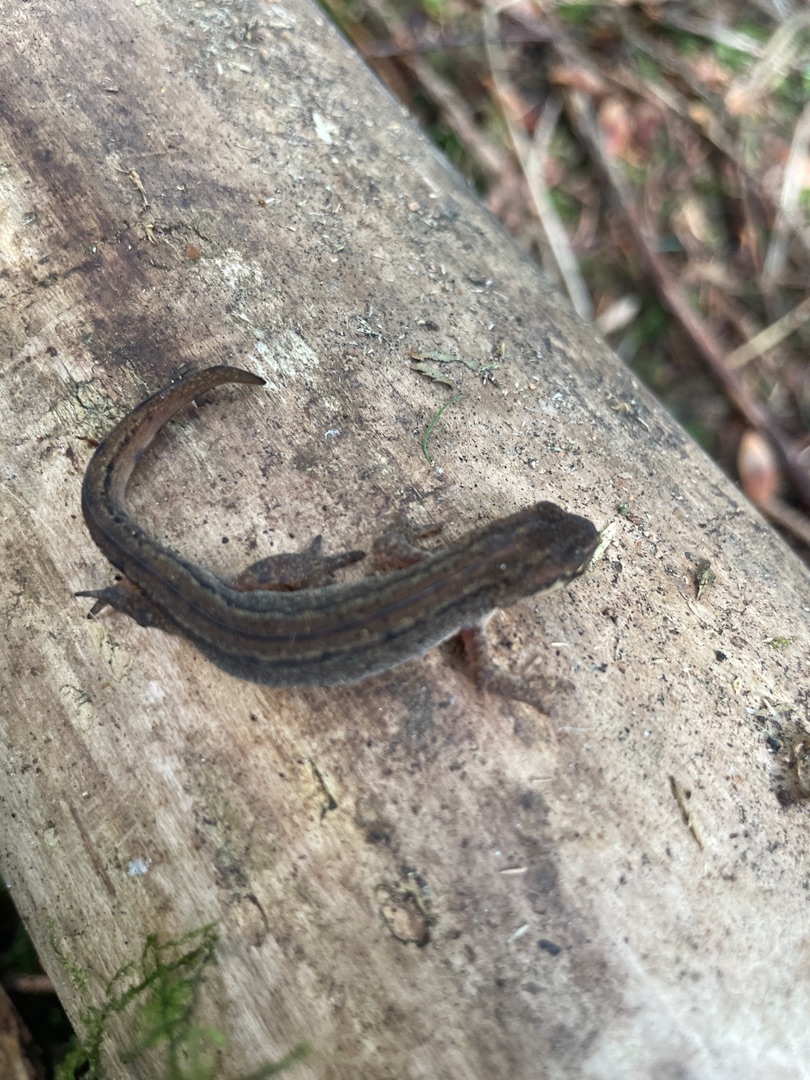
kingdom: Animalia
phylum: Chordata
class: Amphibia
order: Caudata
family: Salamandridae
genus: Lissotriton
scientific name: Lissotriton vulgaris
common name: Lille vandsalamander
